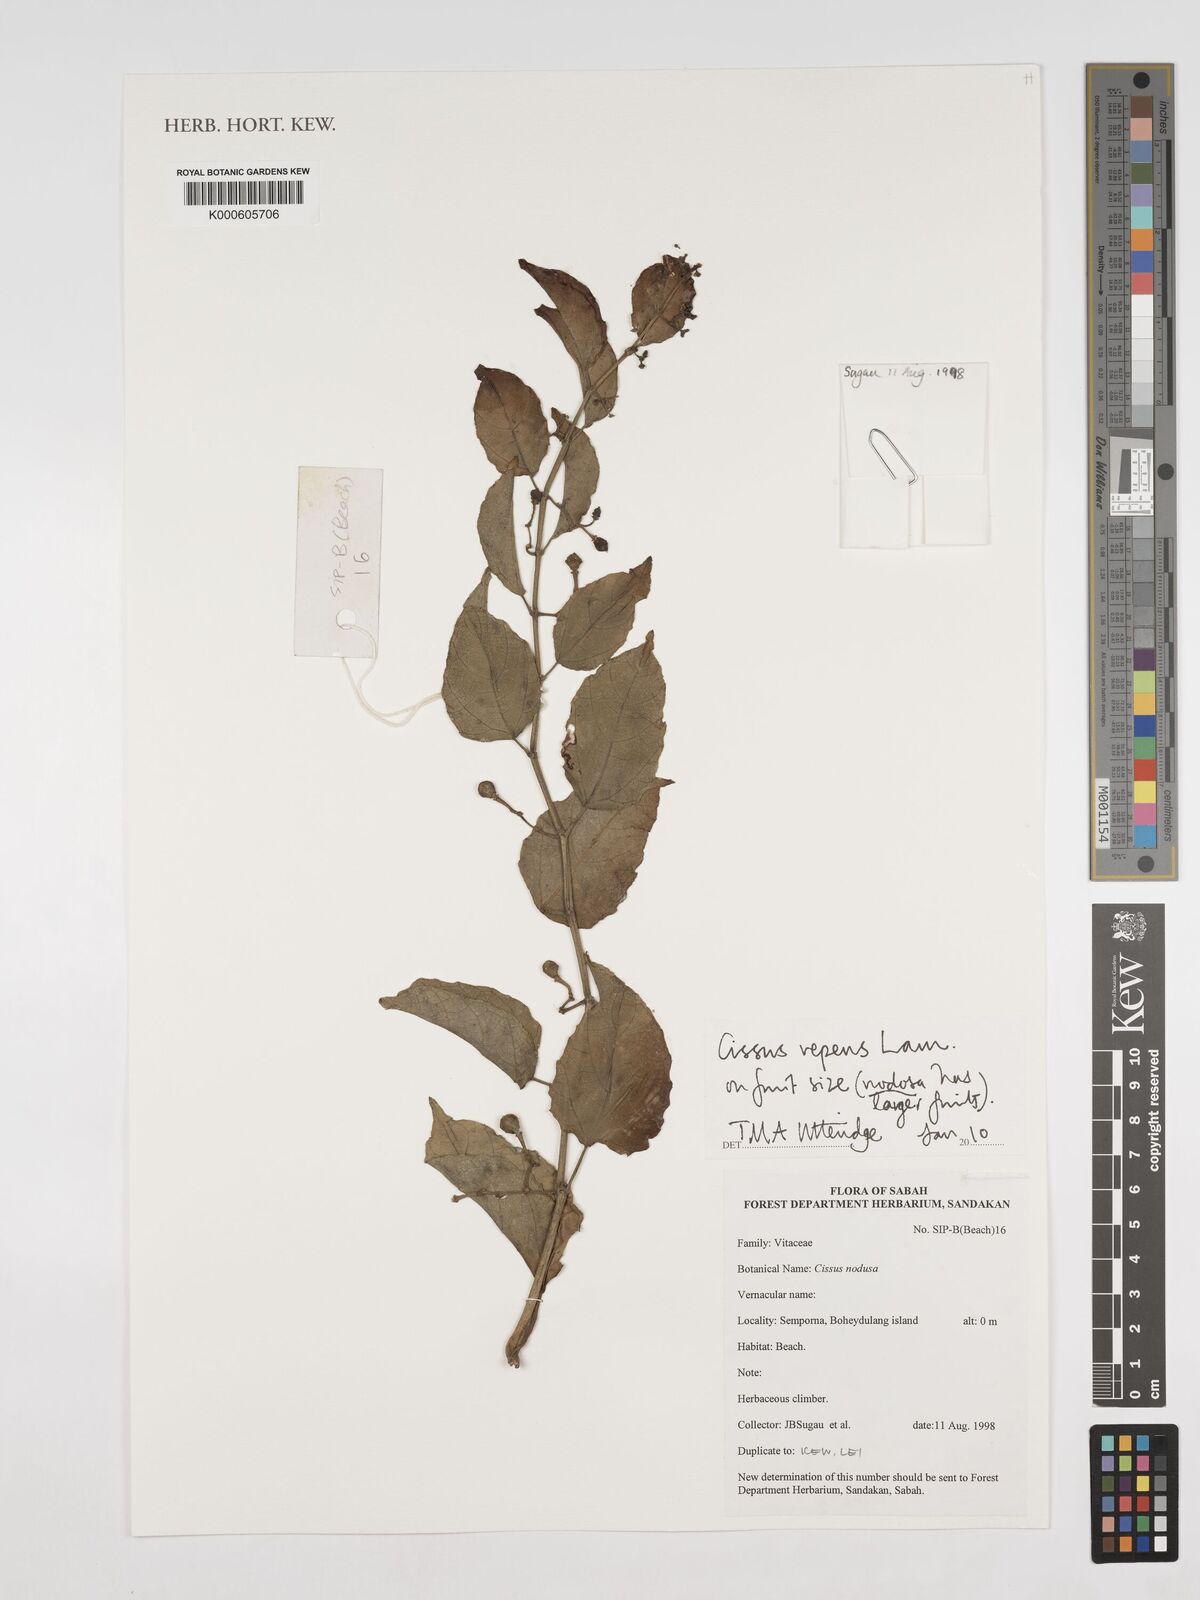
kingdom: Plantae
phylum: Tracheophyta
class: Magnoliopsida
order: Vitales
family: Vitaceae
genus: Cissus
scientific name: Cissus repens
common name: Cissus
